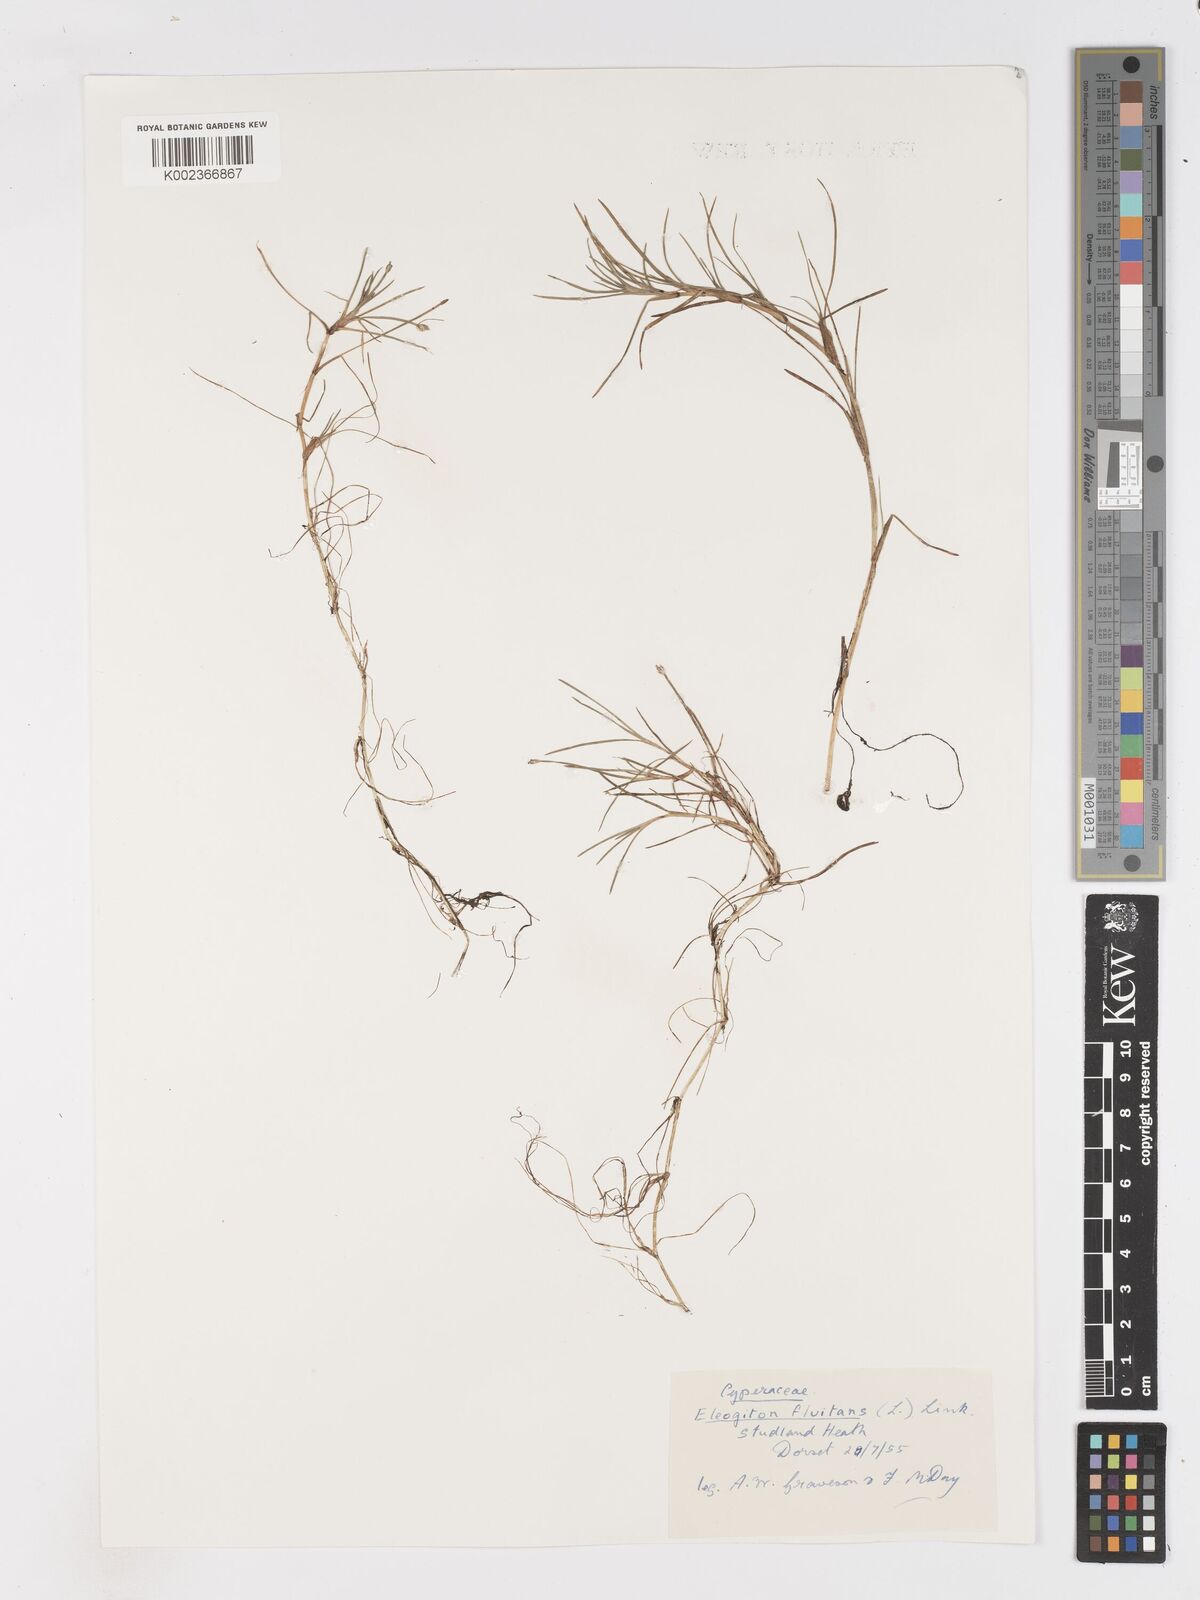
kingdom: Plantae
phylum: Tracheophyta
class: Liliopsida
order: Poales
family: Cyperaceae
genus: Isolepis
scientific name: Isolepis fluitans
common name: Floating club-rush
